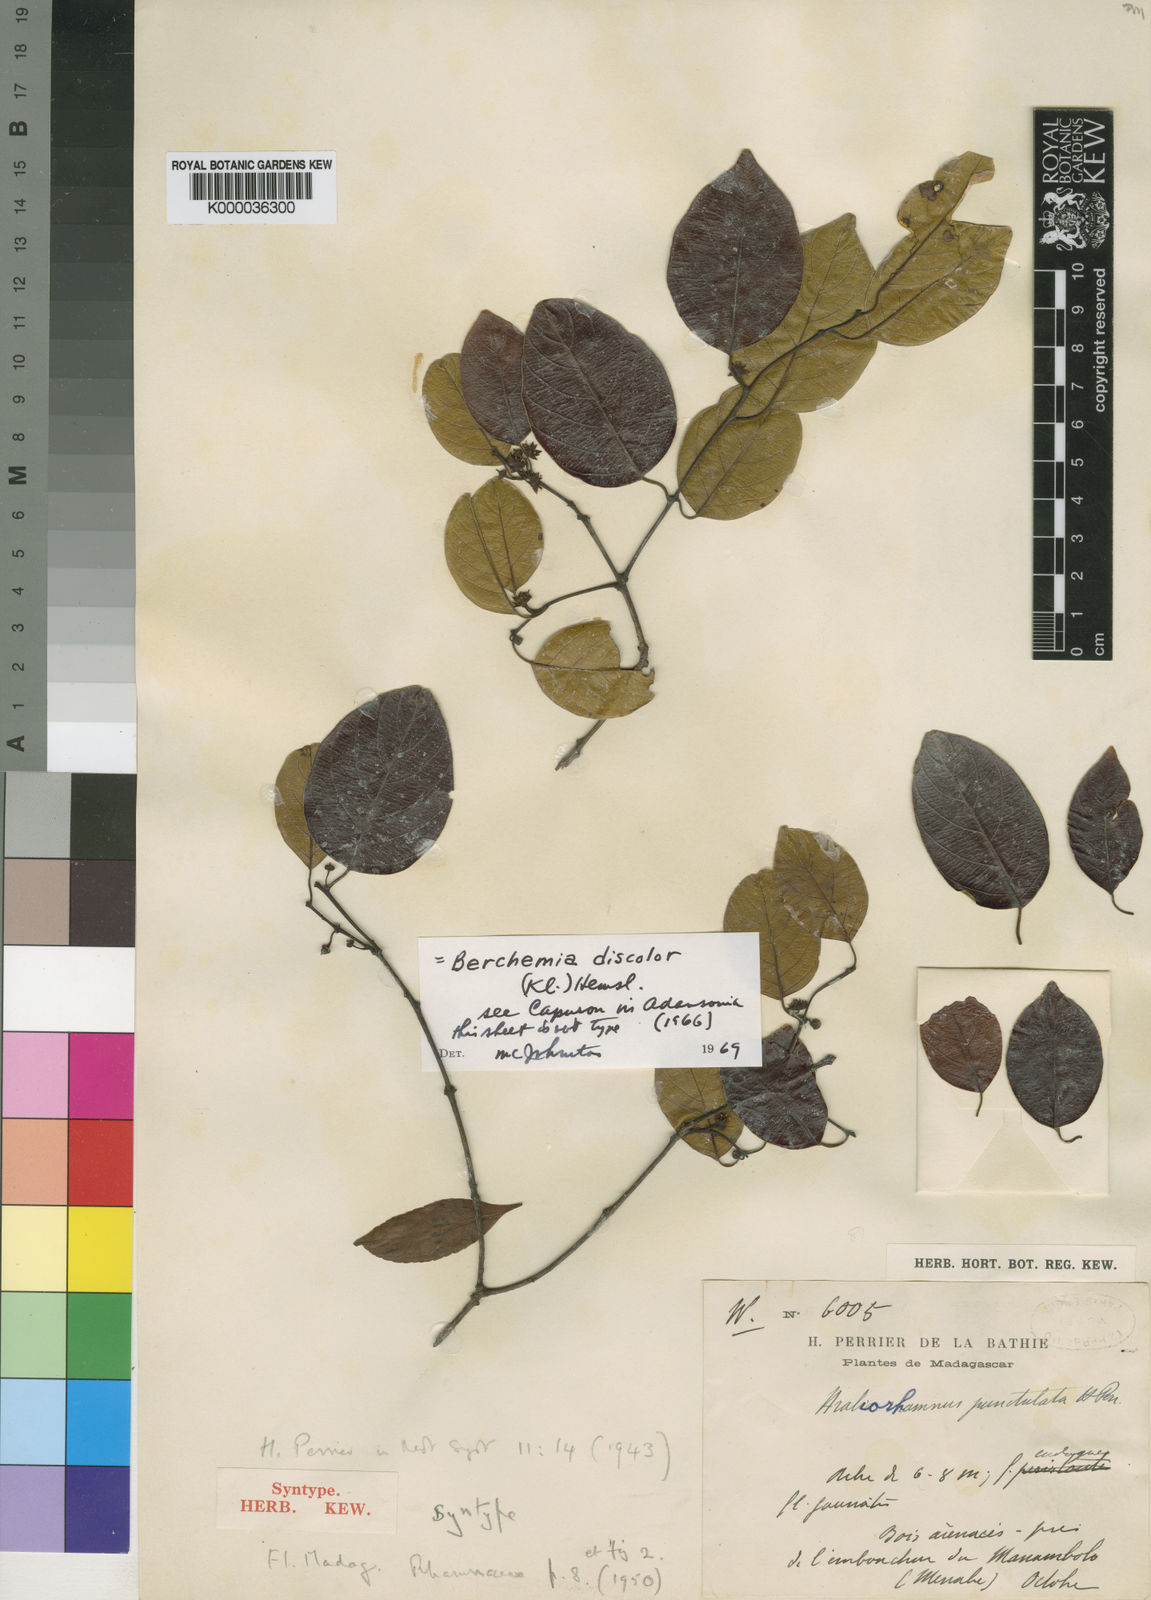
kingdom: Plantae
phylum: Tracheophyta
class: Magnoliopsida
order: Rosales
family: Rhamnaceae
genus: Phyllogeiton
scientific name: Phyllogeiton discolor
